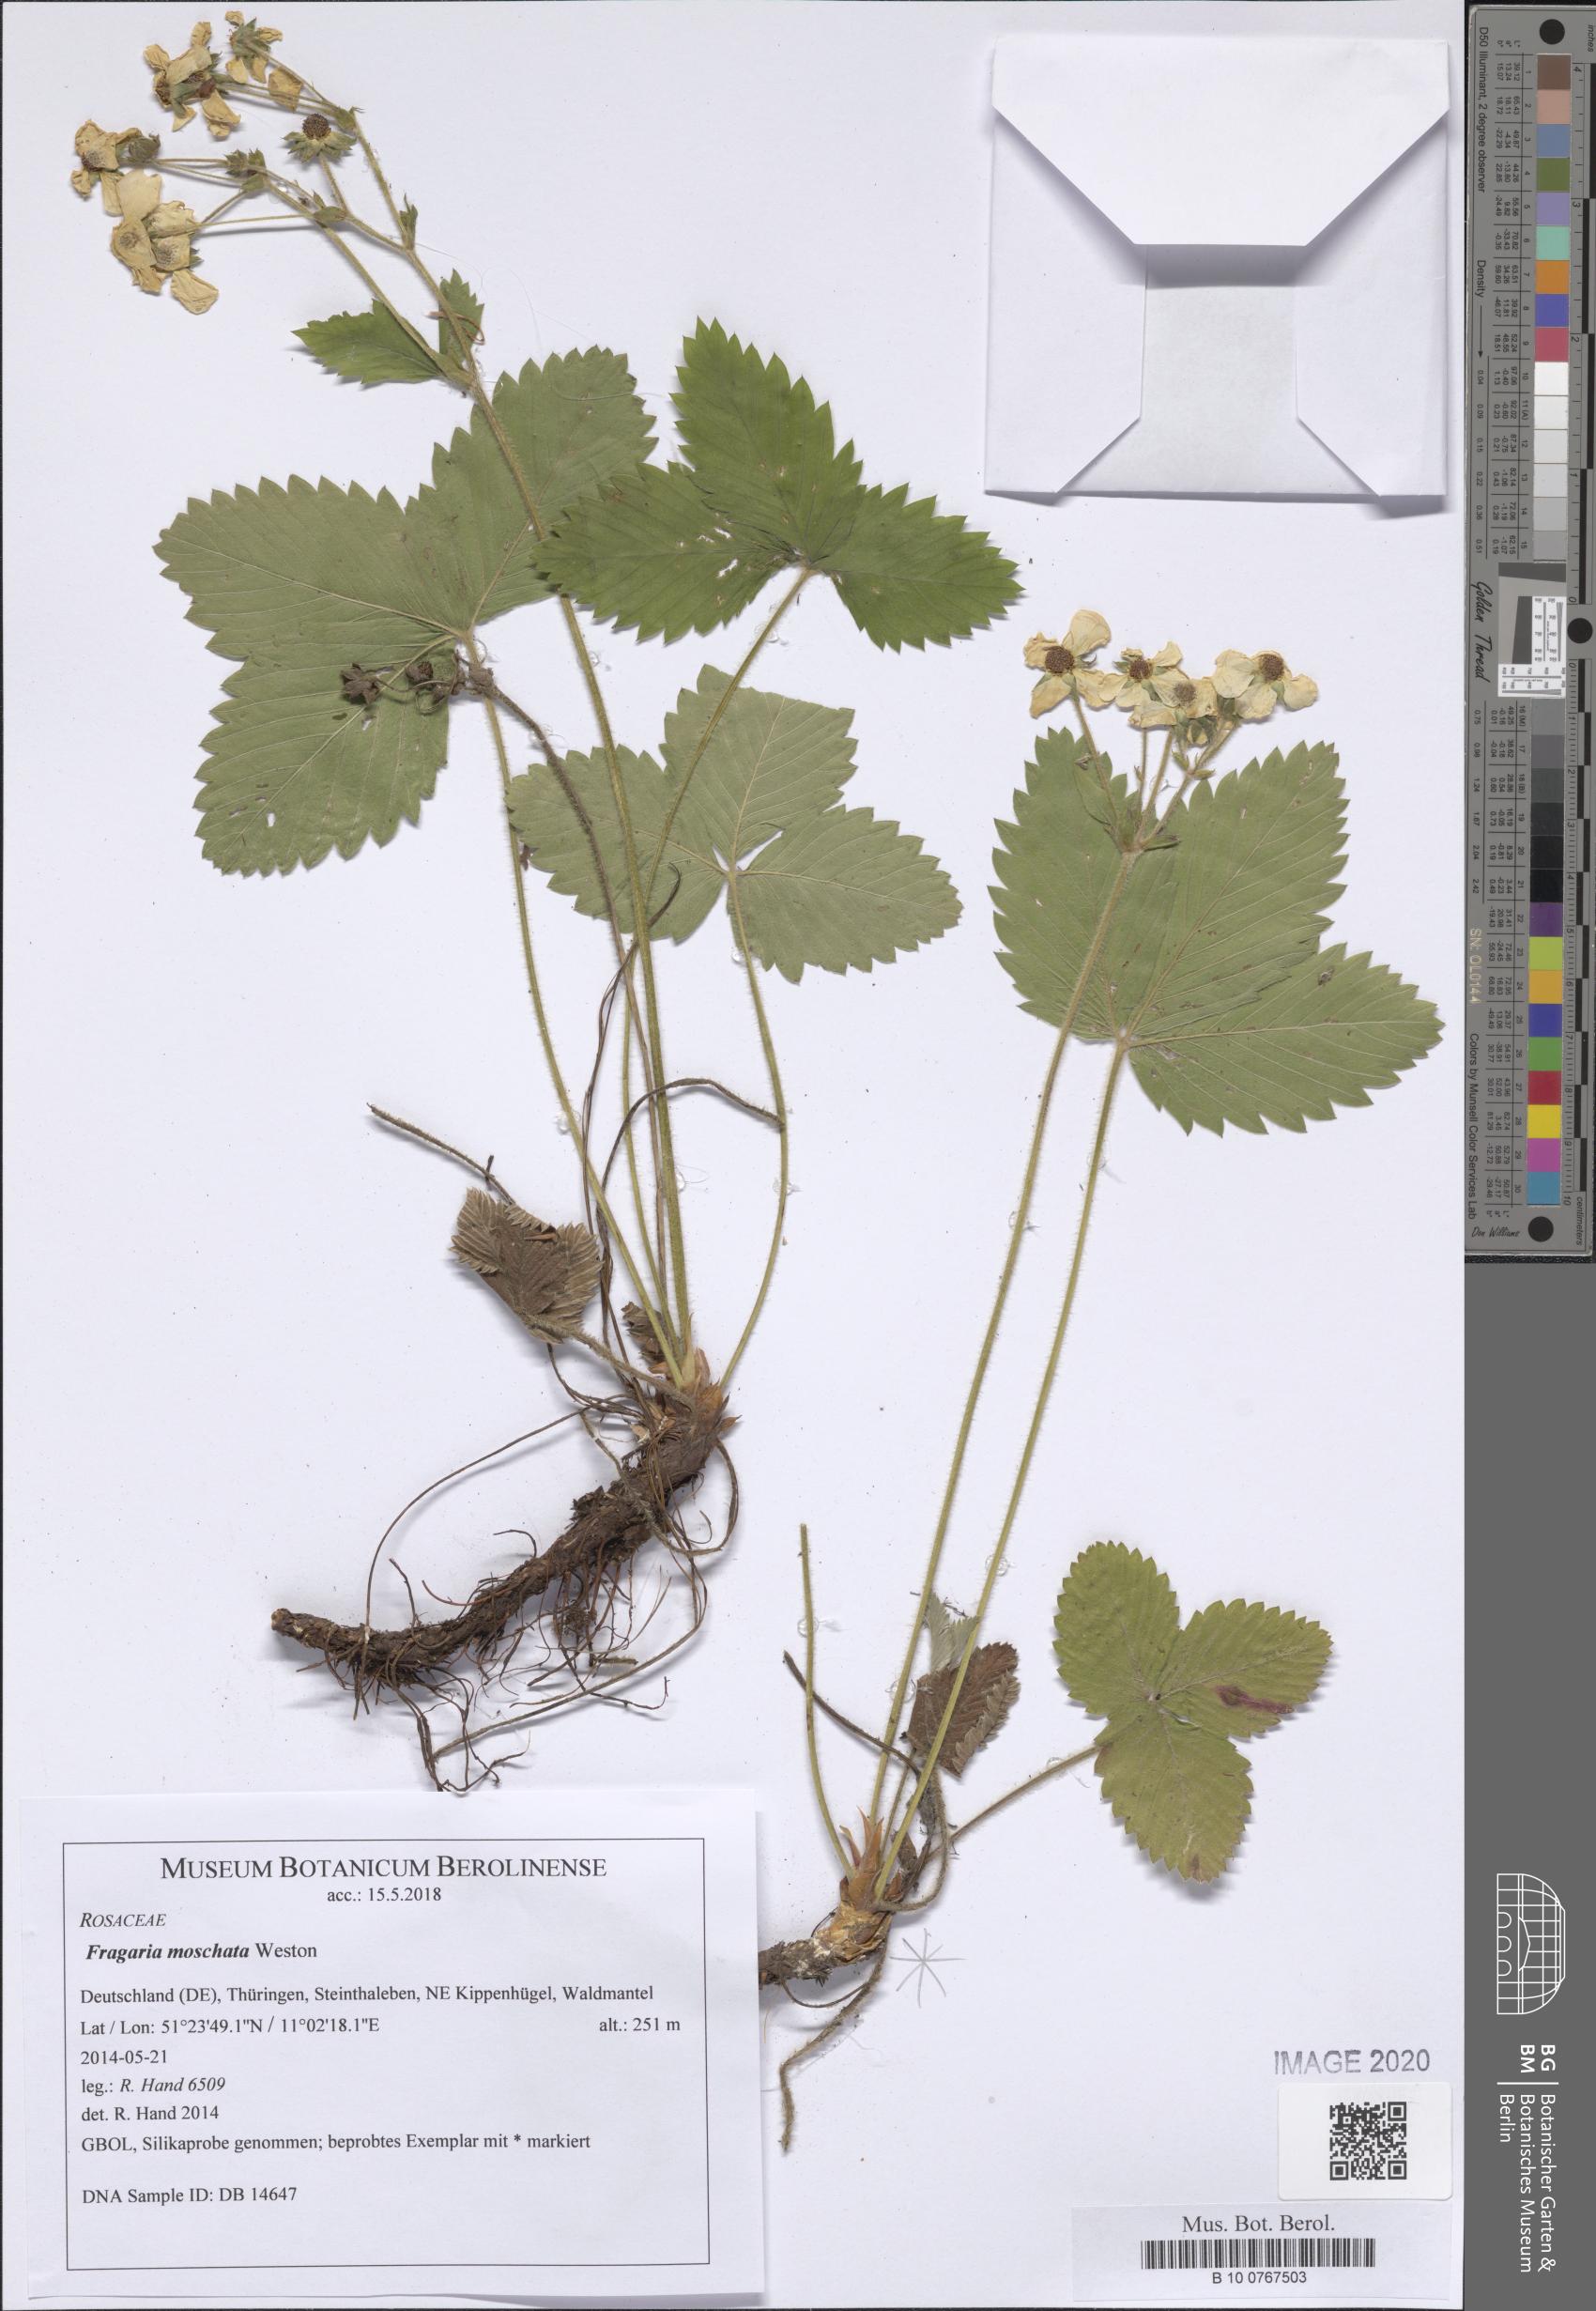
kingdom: Plantae
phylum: Tracheophyta
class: Magnoliopsida
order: Rosales
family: Rosaceae
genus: Fragaria
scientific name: Fragaria moschata
